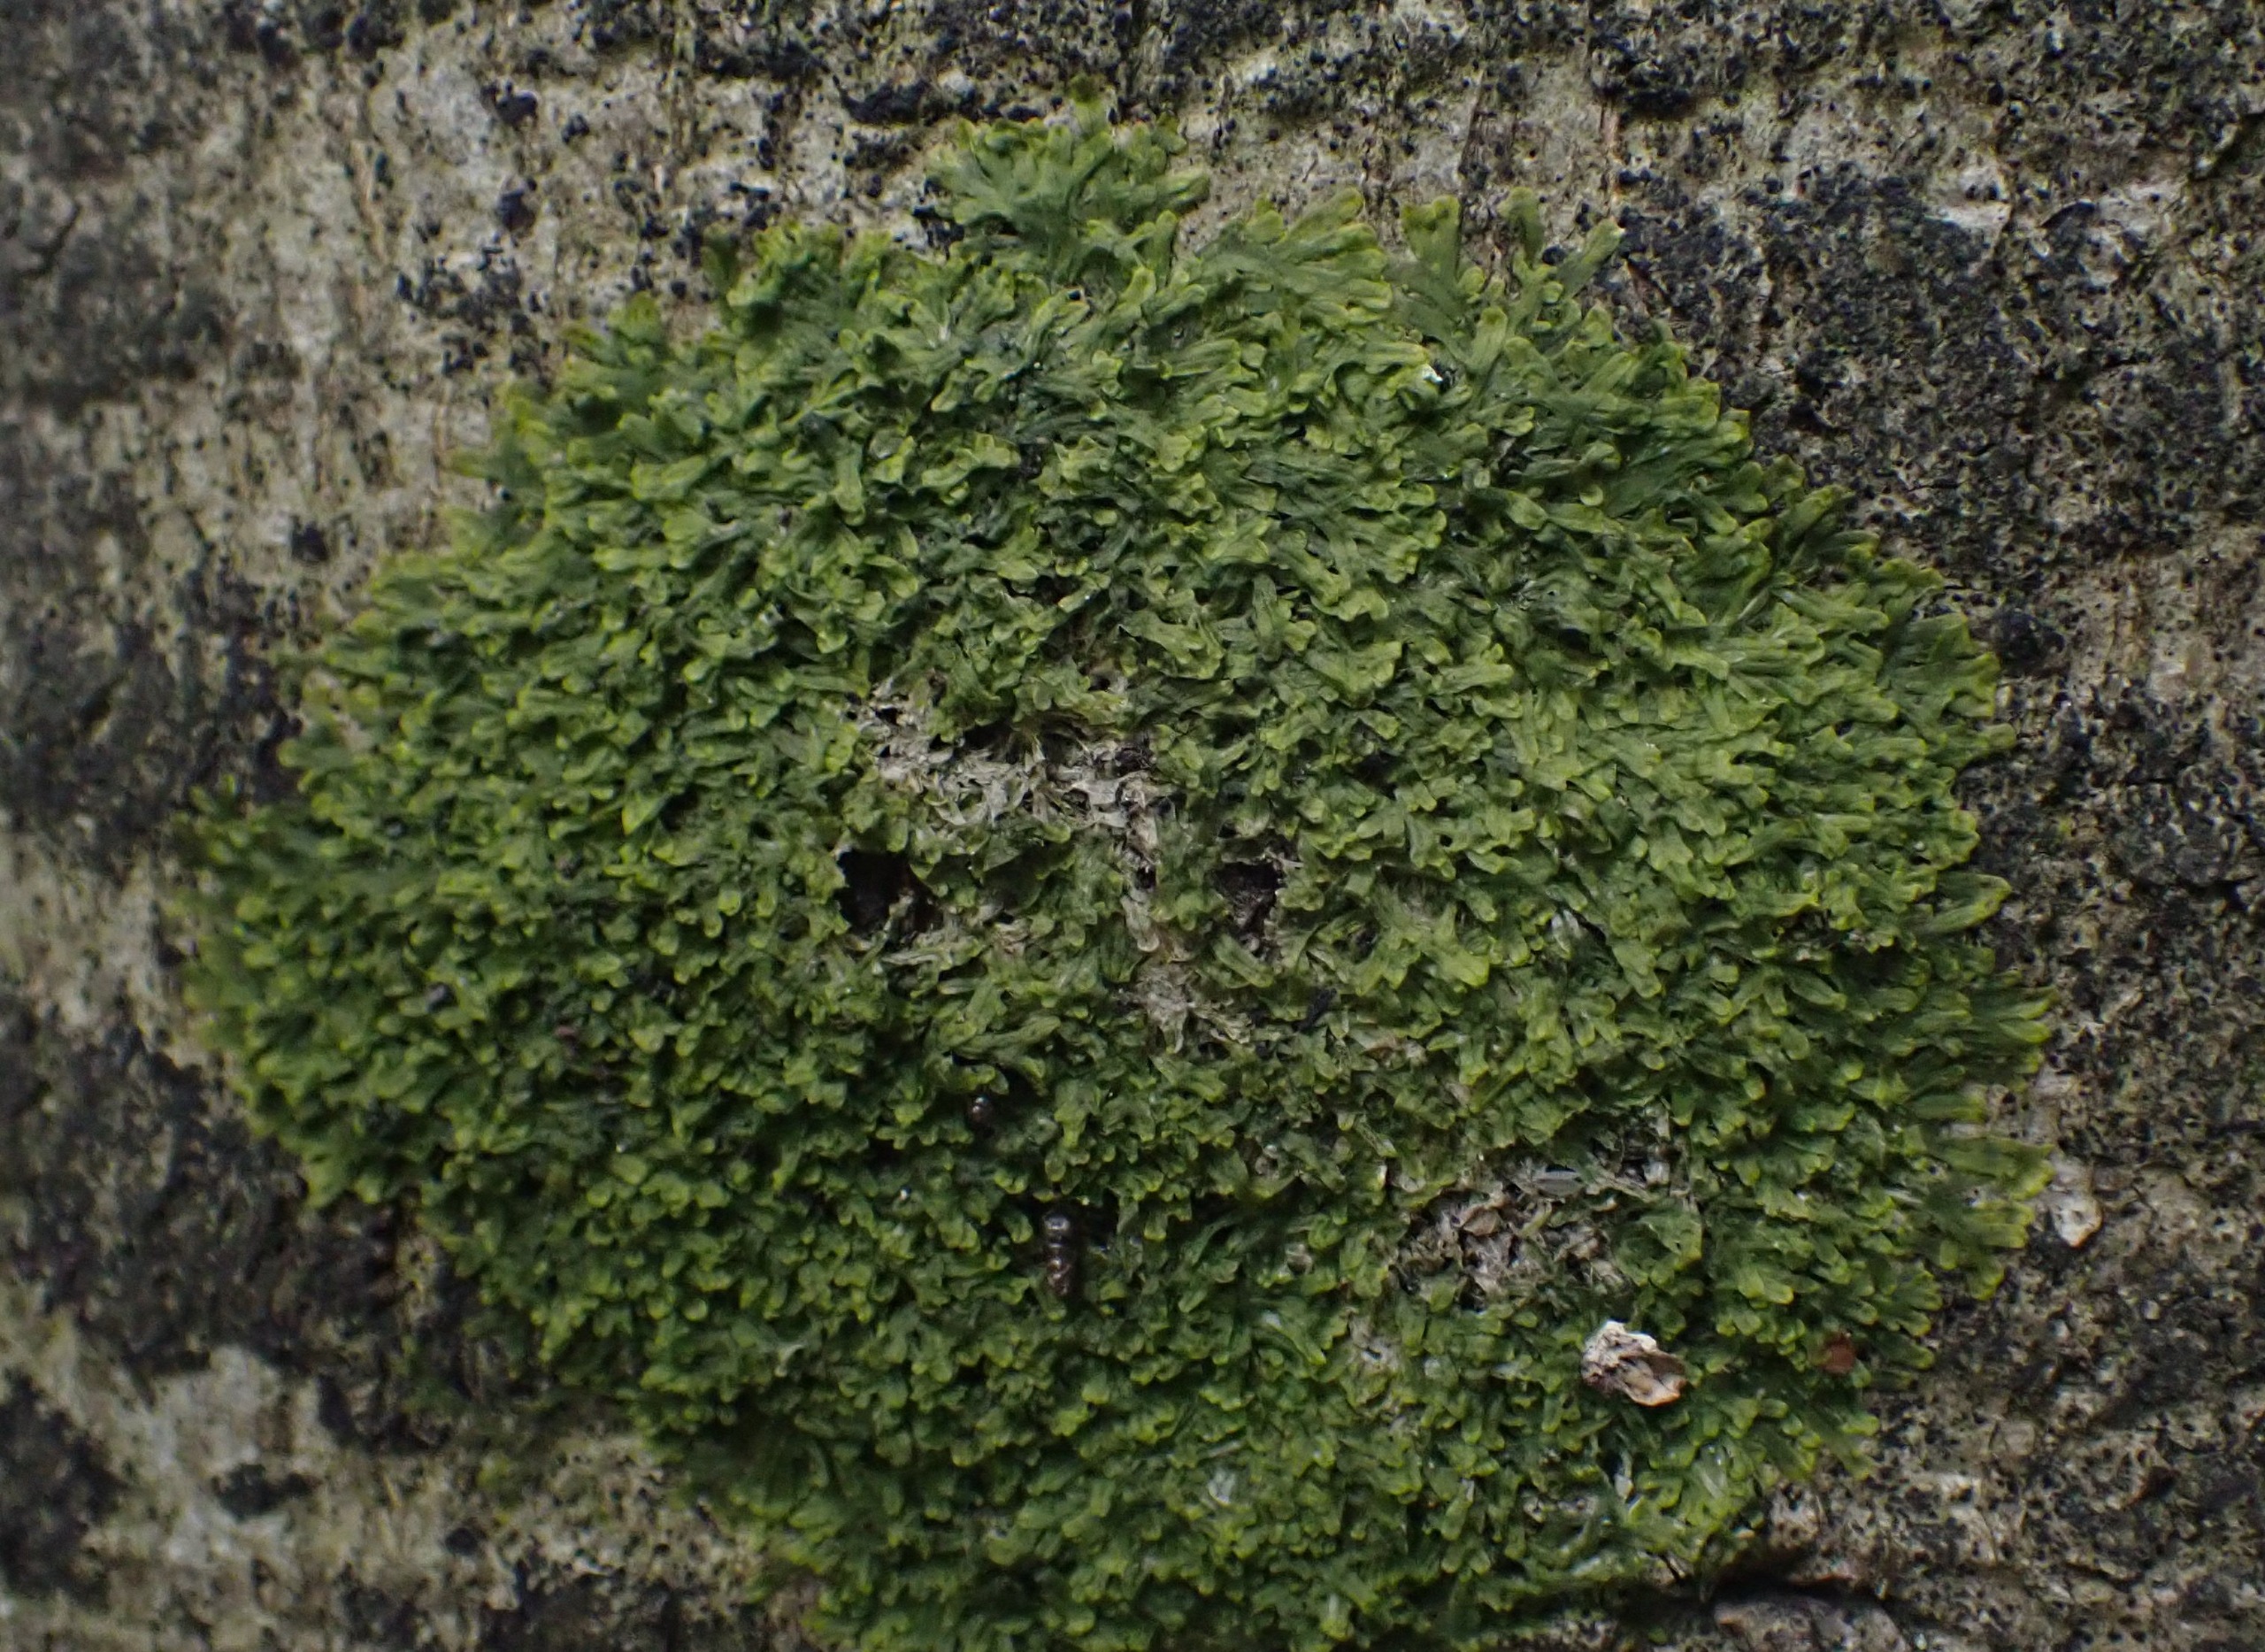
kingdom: Plantae
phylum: Marchantiophyta
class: Jungermanniopsida
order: Metzgeriales
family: Metzgeriaceae
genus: Metzgeria
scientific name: Metzgeria furcata
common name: Almindelig gaffelløv
